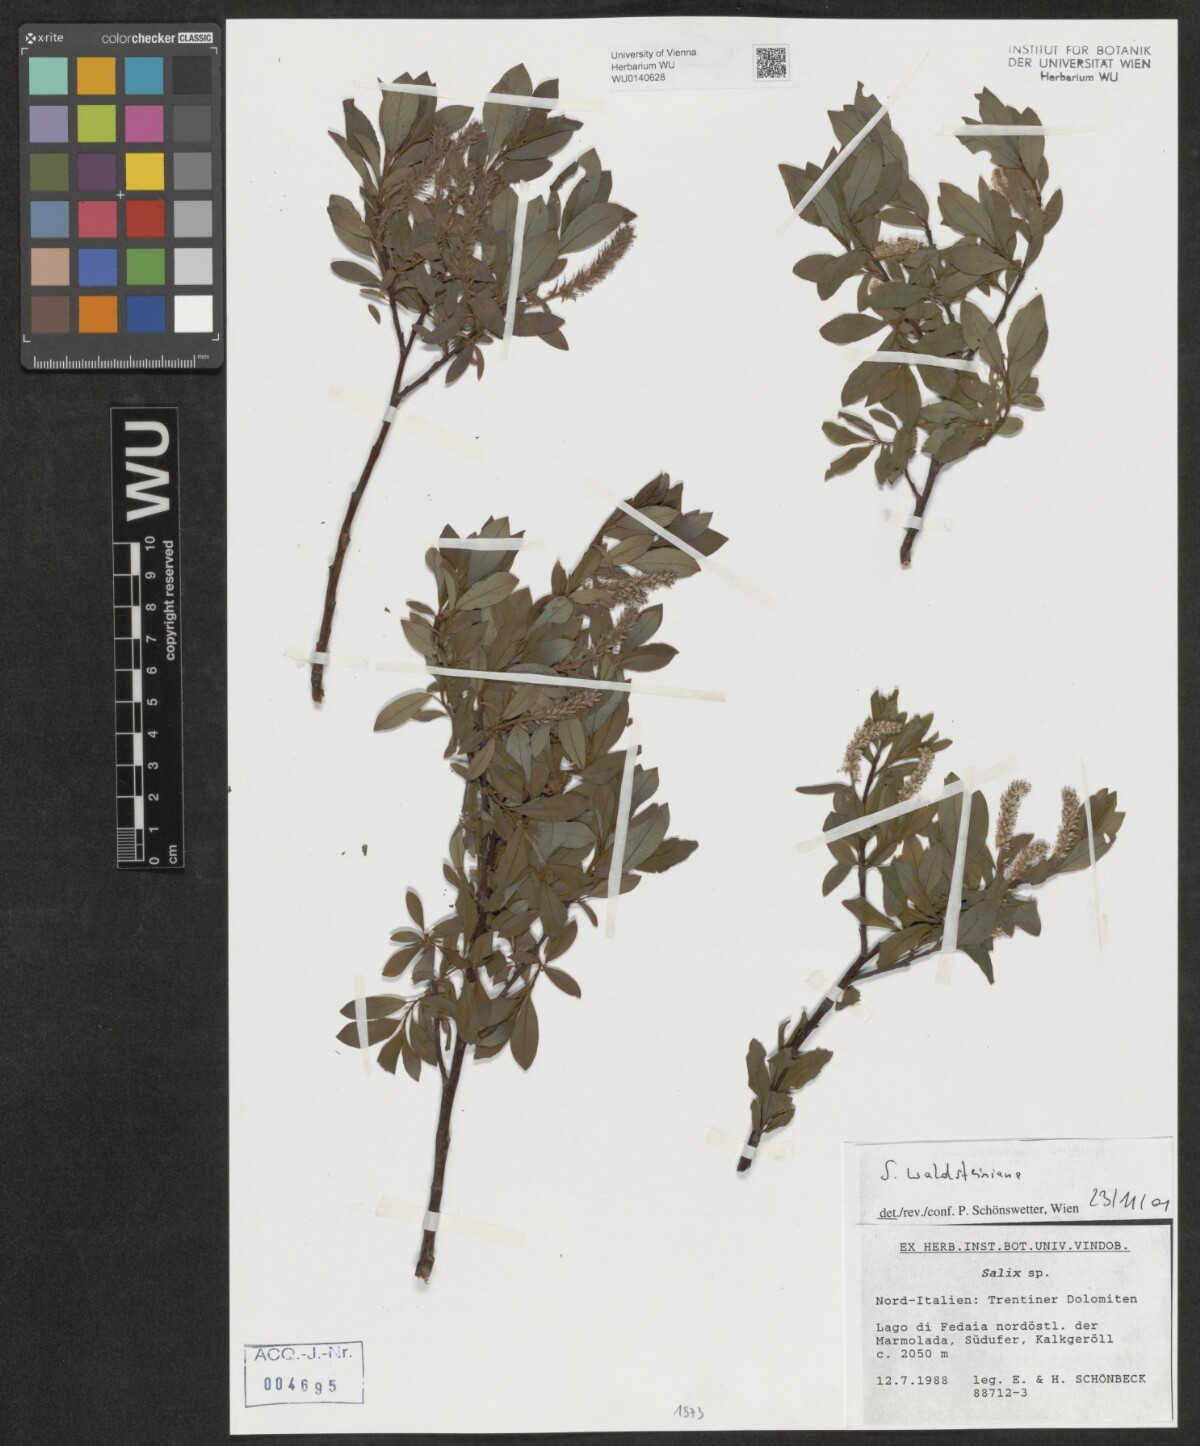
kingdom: Plantae
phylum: Tracheophyta
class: Magnoliopsida
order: Malpighiales
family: Salicaceae
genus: Salix
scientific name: Salix waldsteiniana
